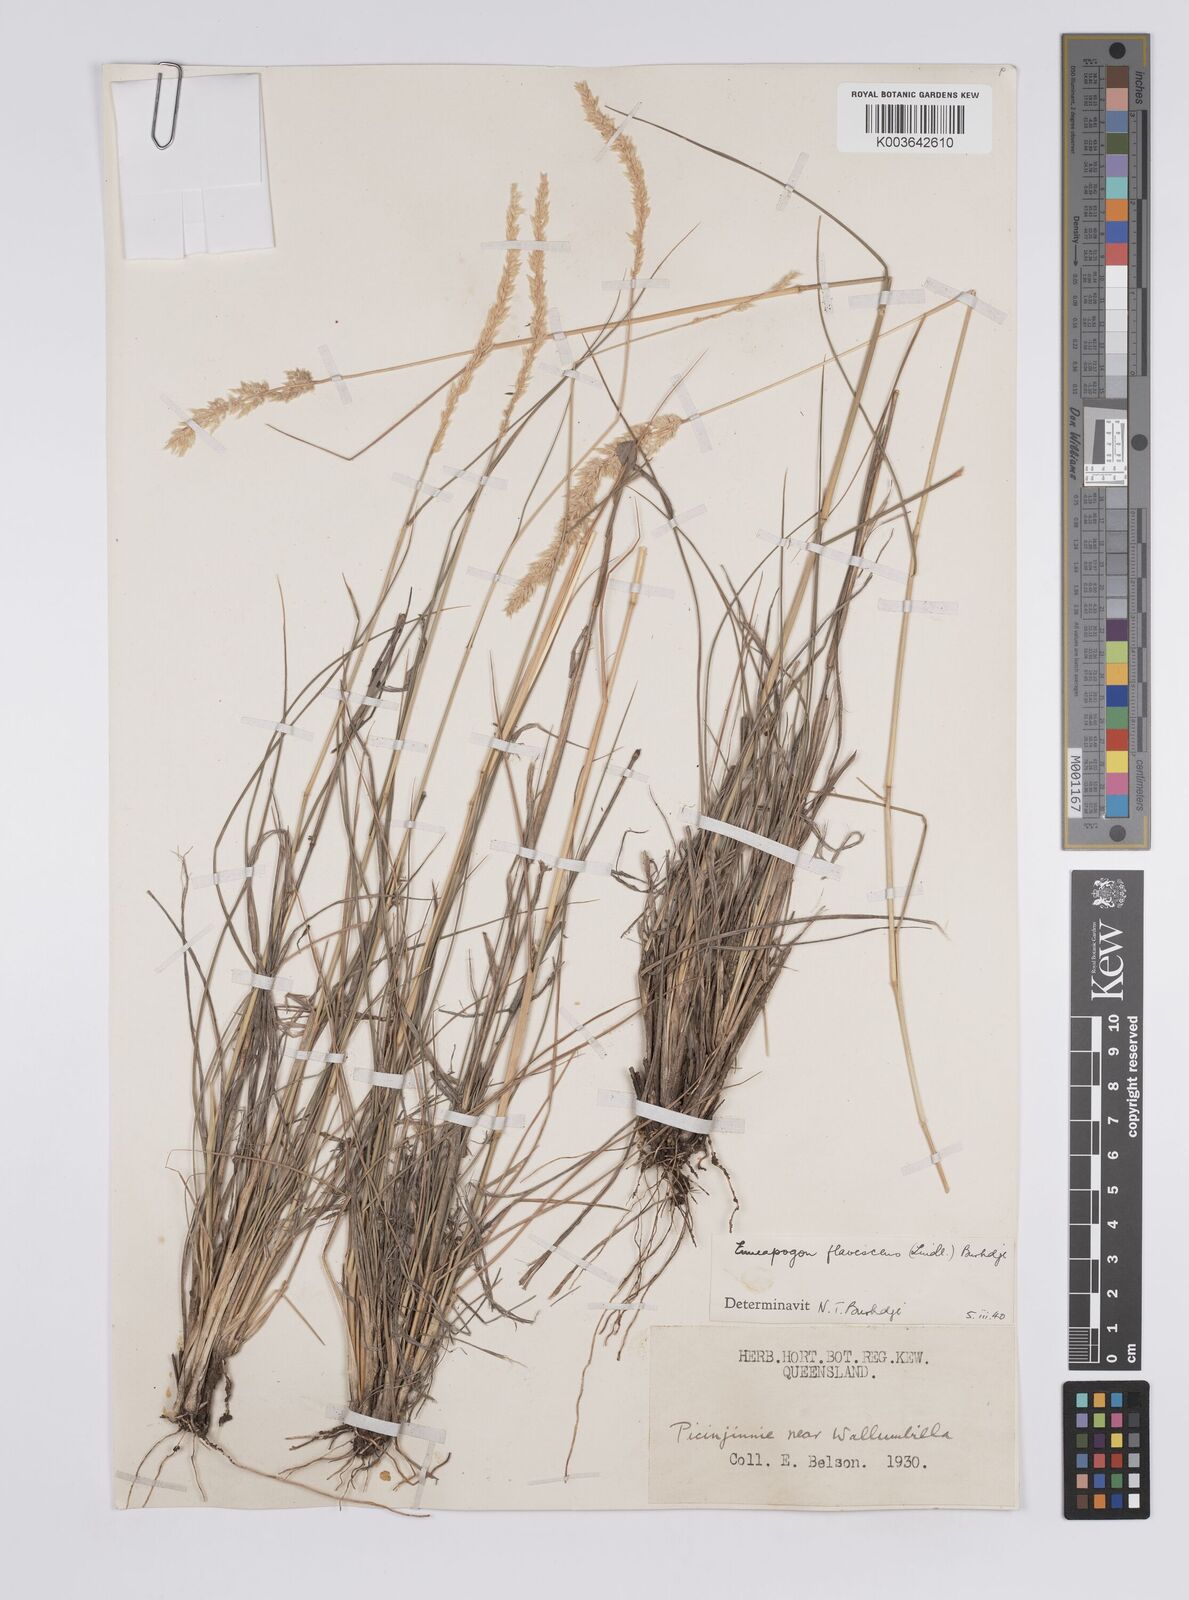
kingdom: Plantae
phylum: Tracheophyta
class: Liliopsida
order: Poales
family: Poaceae
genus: Enneapogon
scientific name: Enneapogon truncatus
